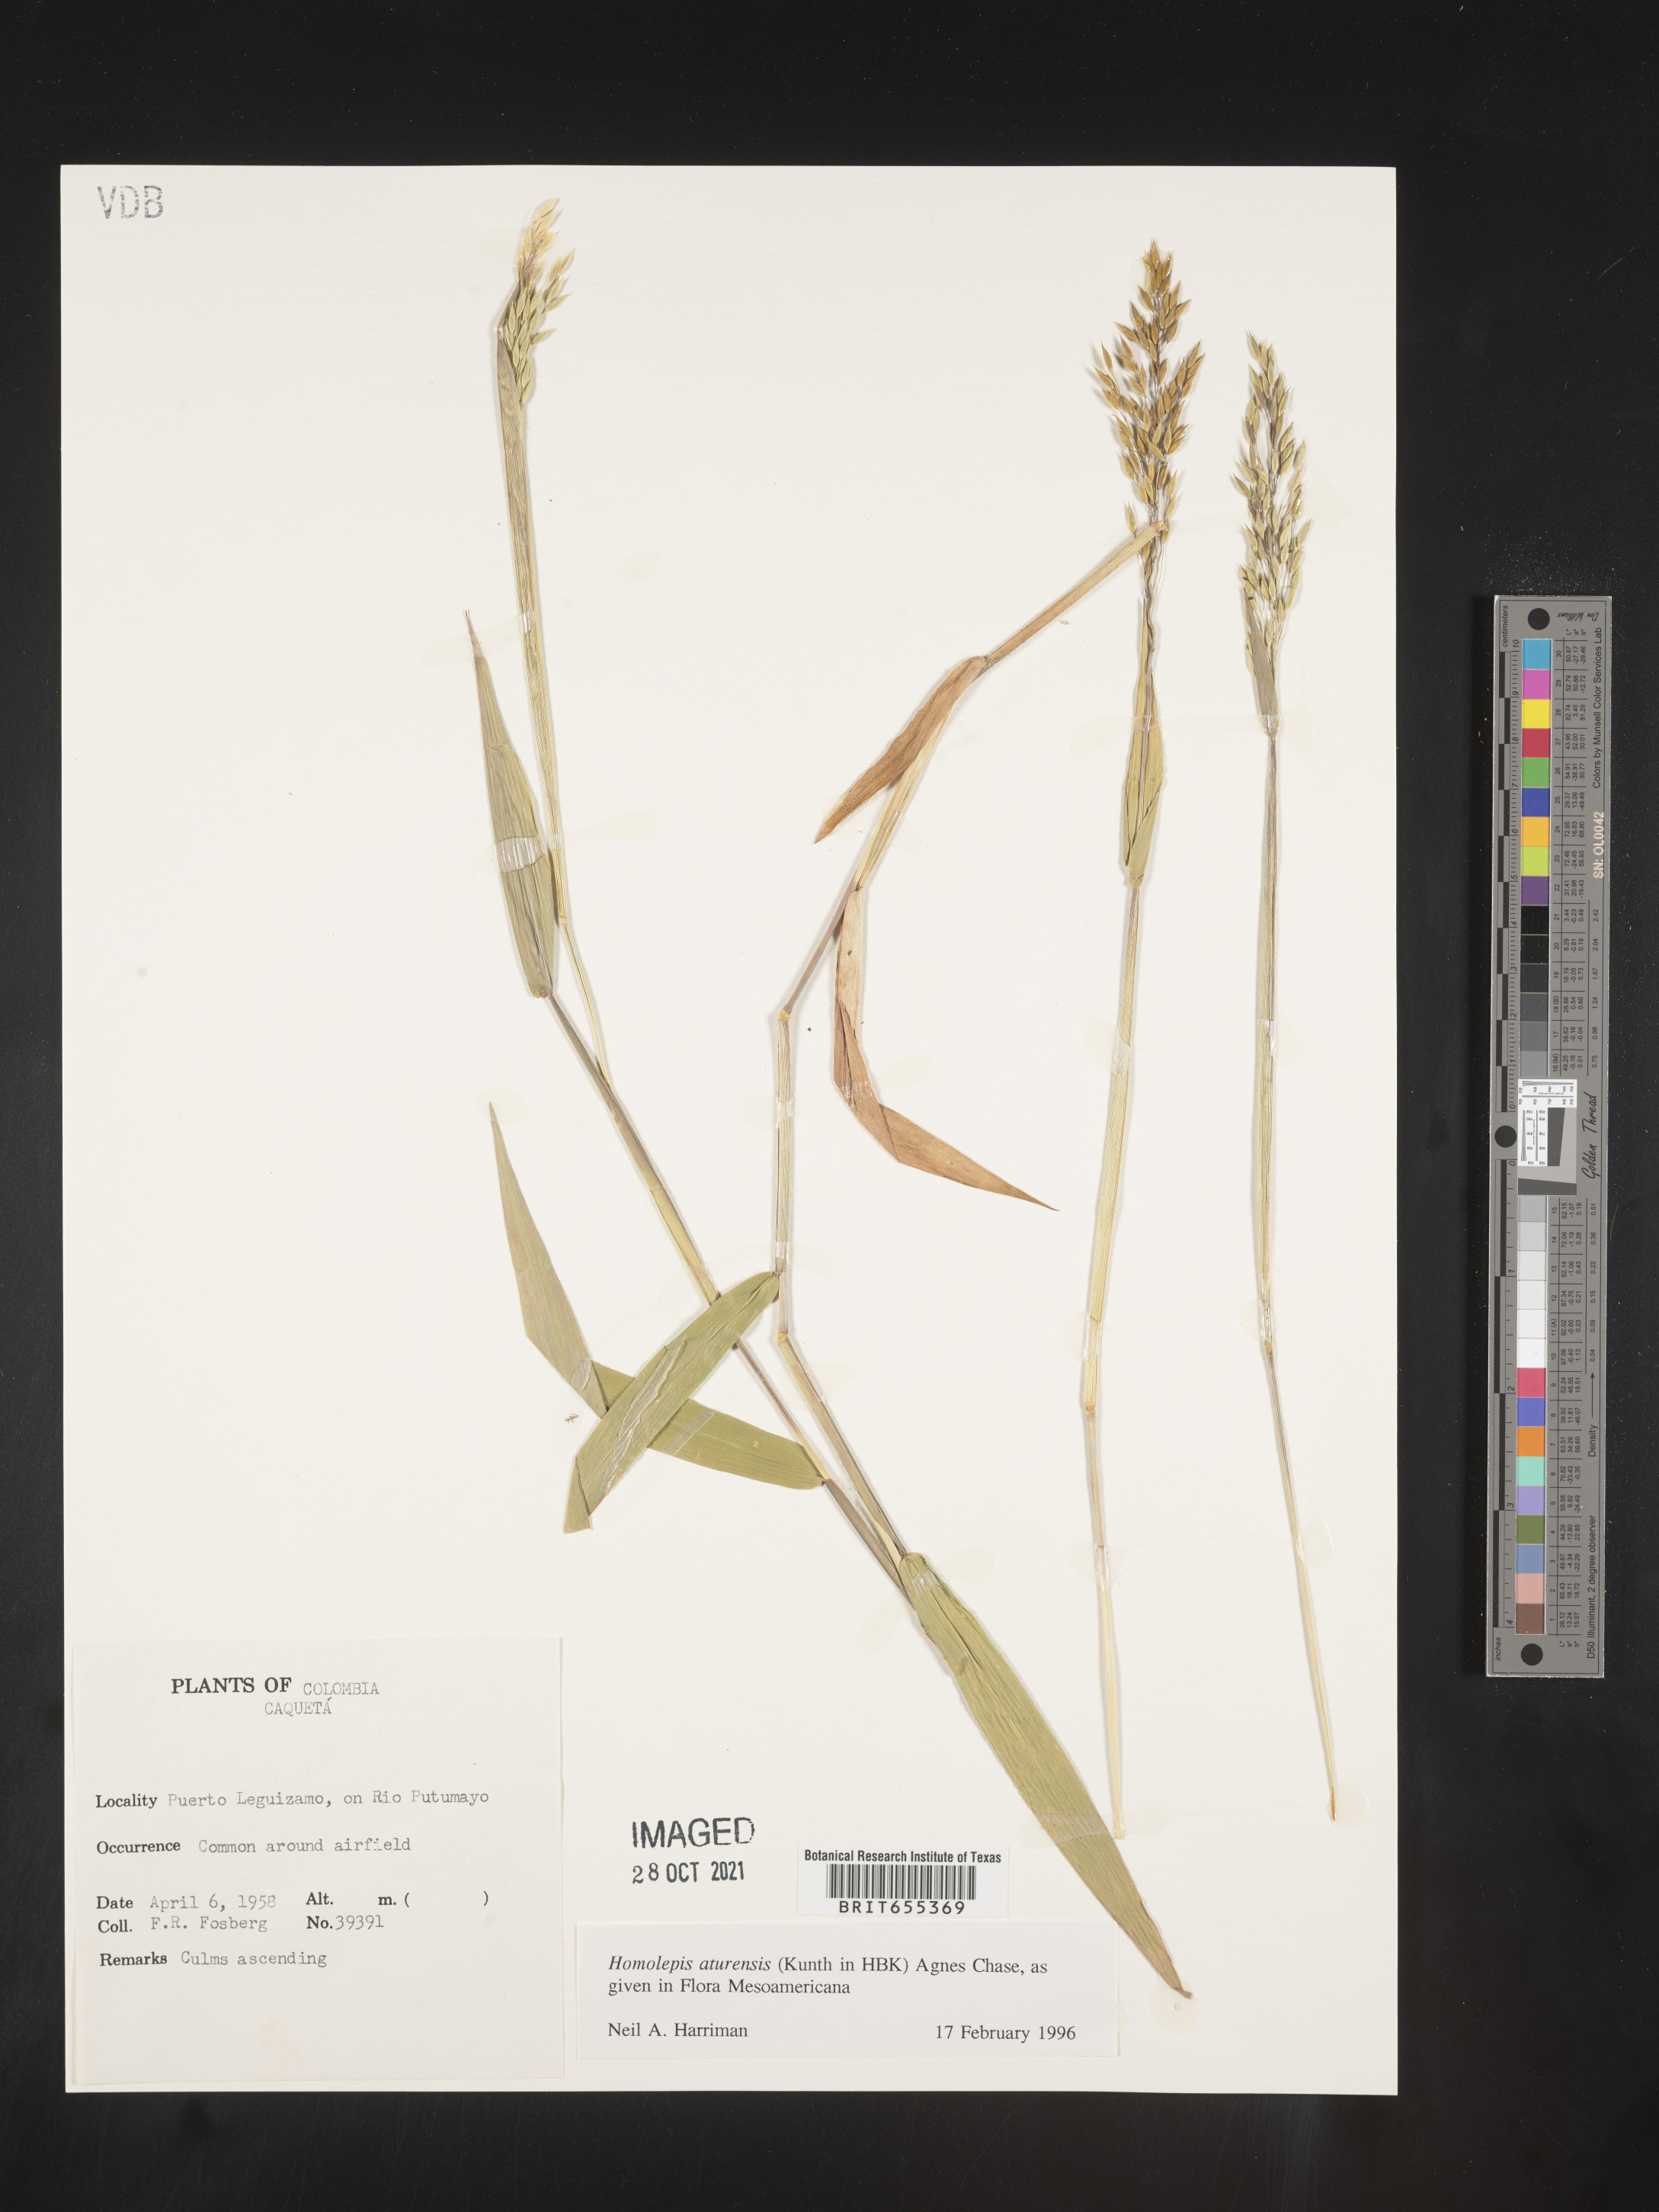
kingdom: Plantae
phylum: Tracheophyta
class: Liliopsida
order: Poales
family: Poaceae
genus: Homolepis
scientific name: Homolepis
